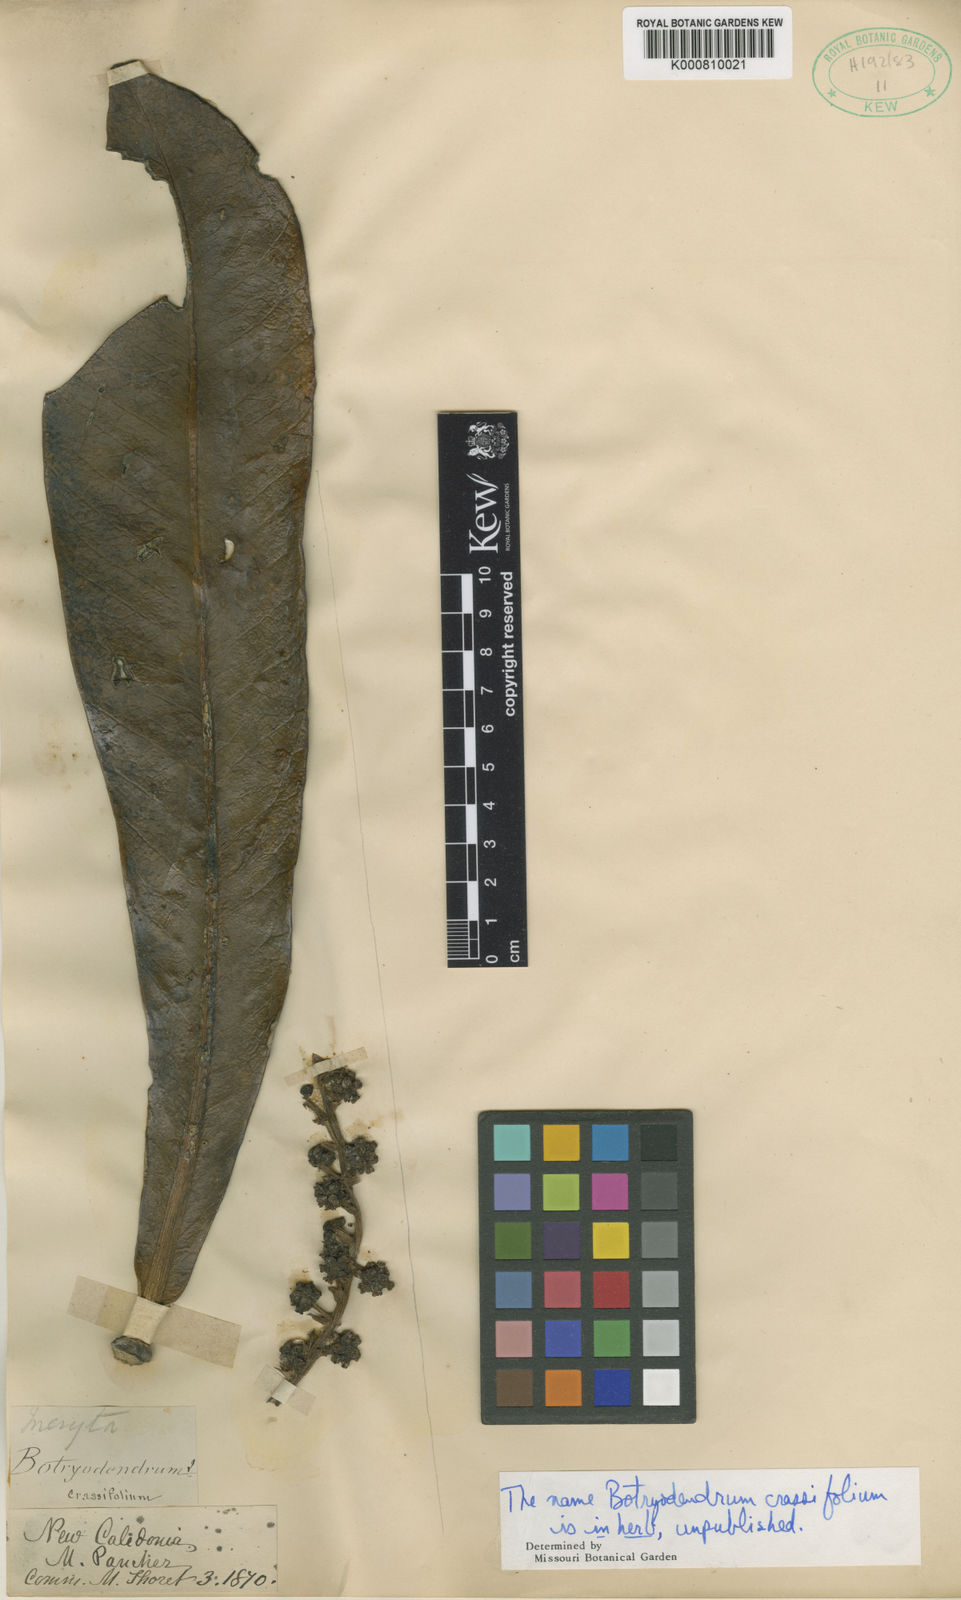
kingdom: Plantae
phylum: Tracheophyta
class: Magnoliopsida
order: Apiales
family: Araliaceae
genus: Meryta
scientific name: Meryta
